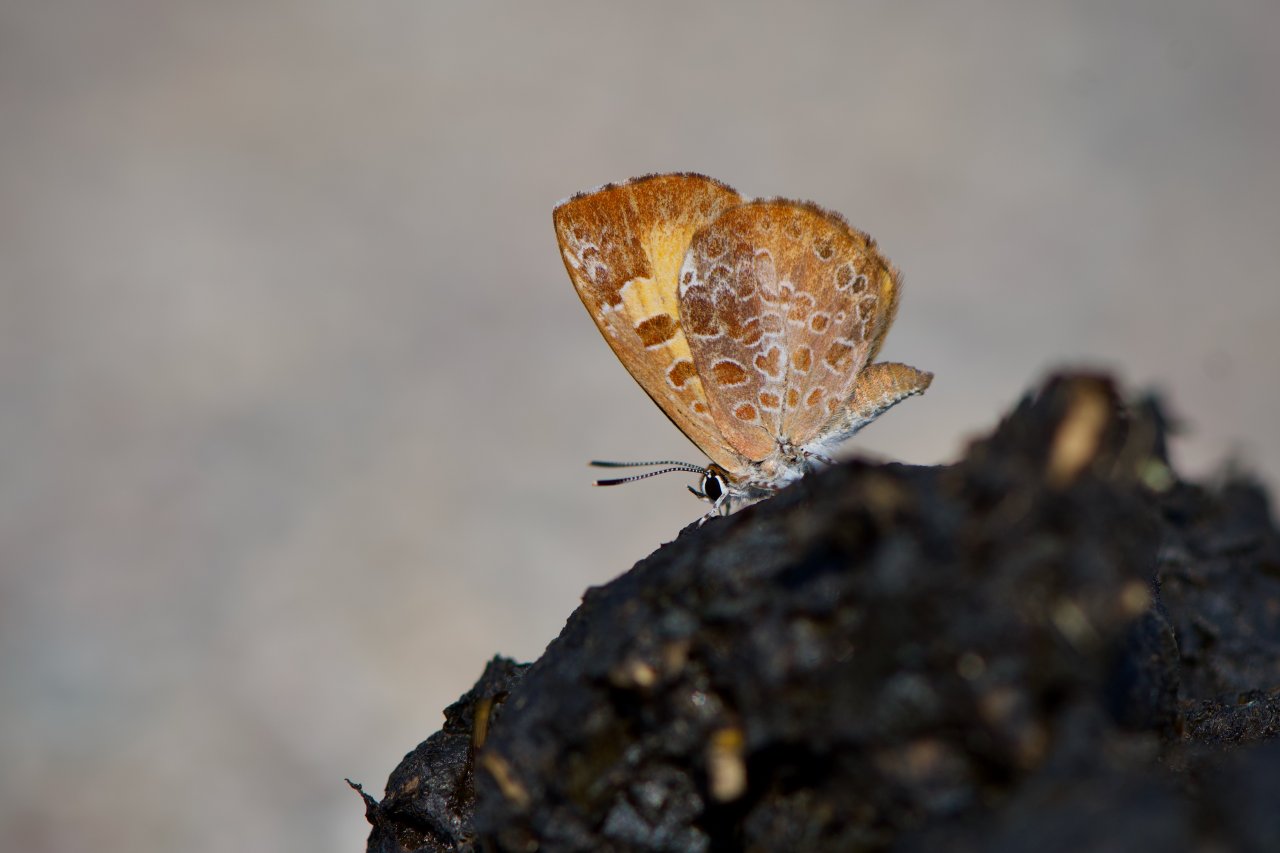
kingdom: Animalia
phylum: Arthropoda
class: Insecta
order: Lepidoptera
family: Lycaenidae
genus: Feniseca
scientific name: Feniseca tarquinius
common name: Harvester
